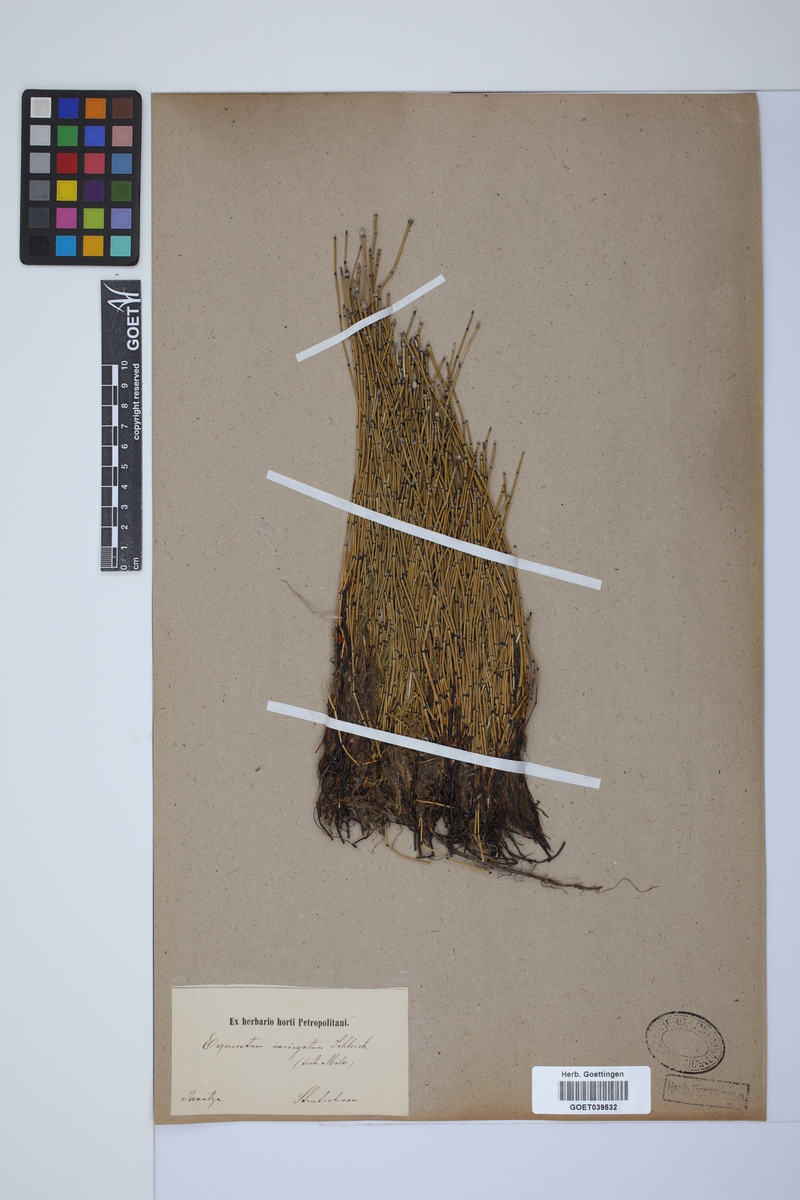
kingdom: Plantae
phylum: Tracheophyta
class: Polypodiopsida
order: Equisetales
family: Equisetaceae
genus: Equisetum
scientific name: Equisetum variegatum
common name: Variegated horsetail
